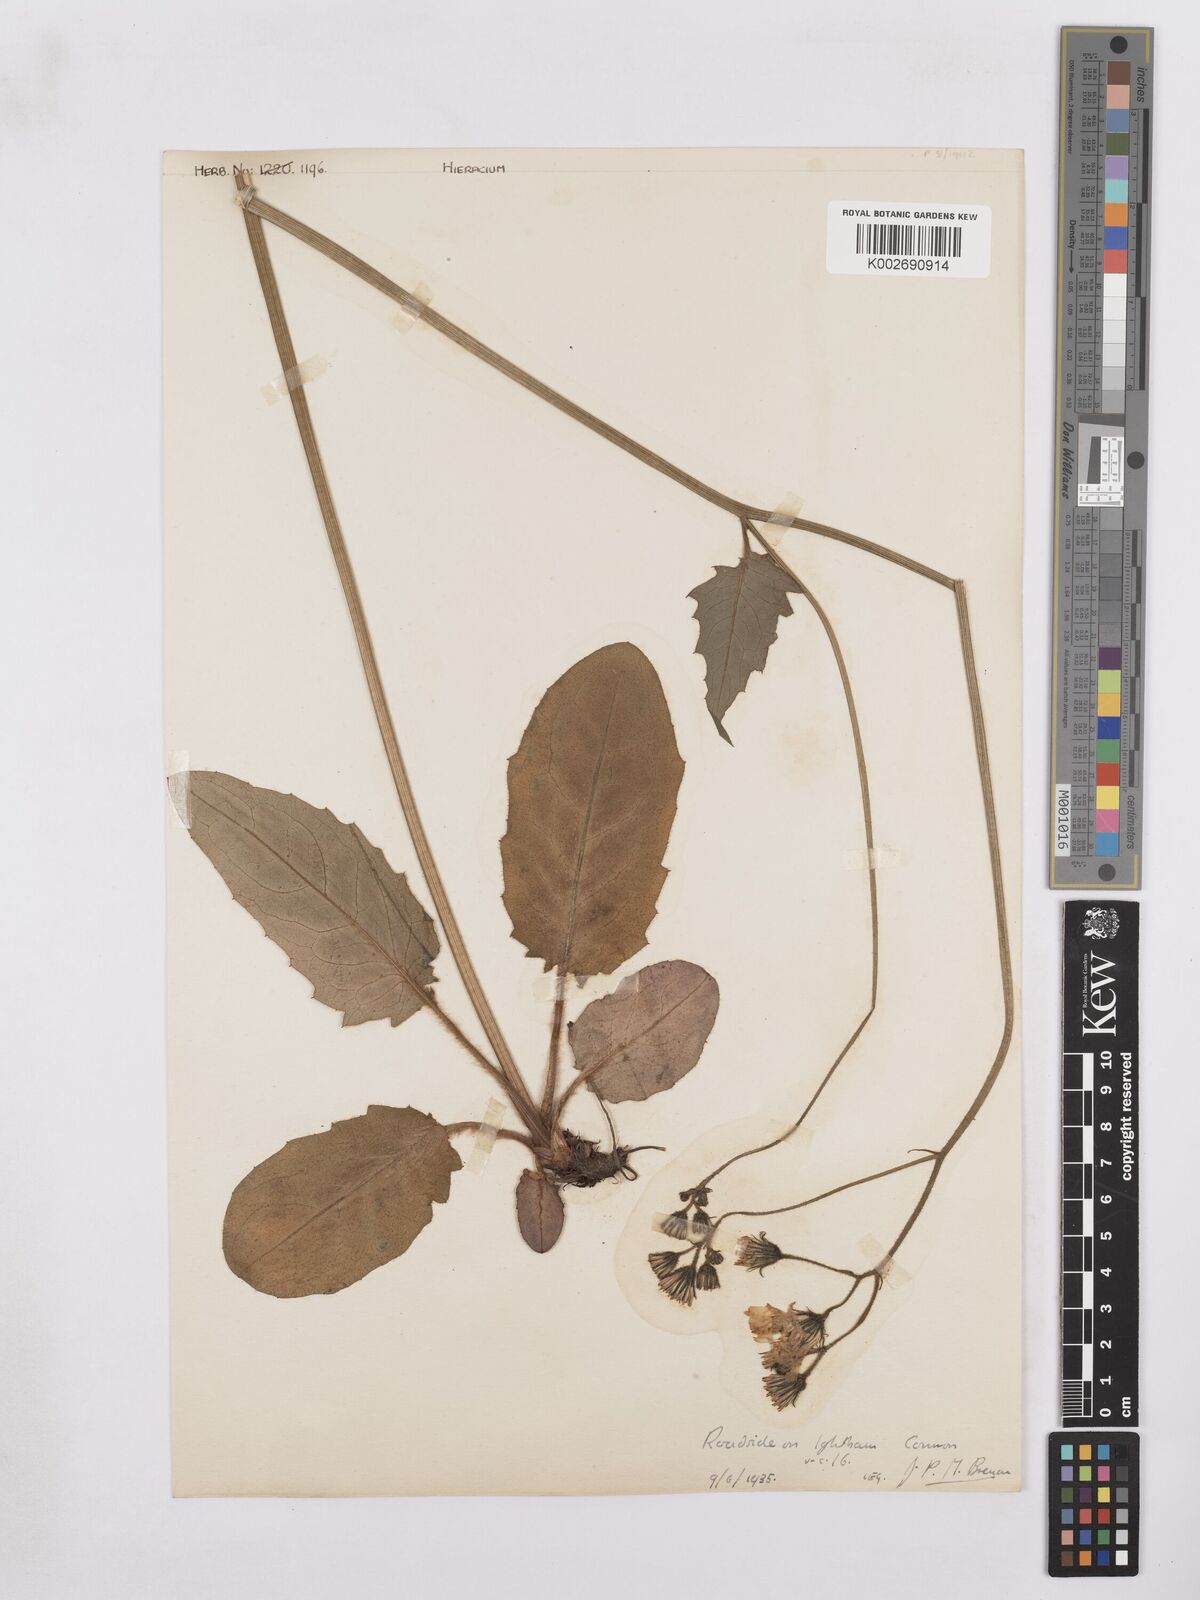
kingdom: Plantae
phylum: Tracheophyta
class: Magnoliopsida
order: Asterales
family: Asteraceae
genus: Hieracium
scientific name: Hieracium murorum
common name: Wall hawkweed
